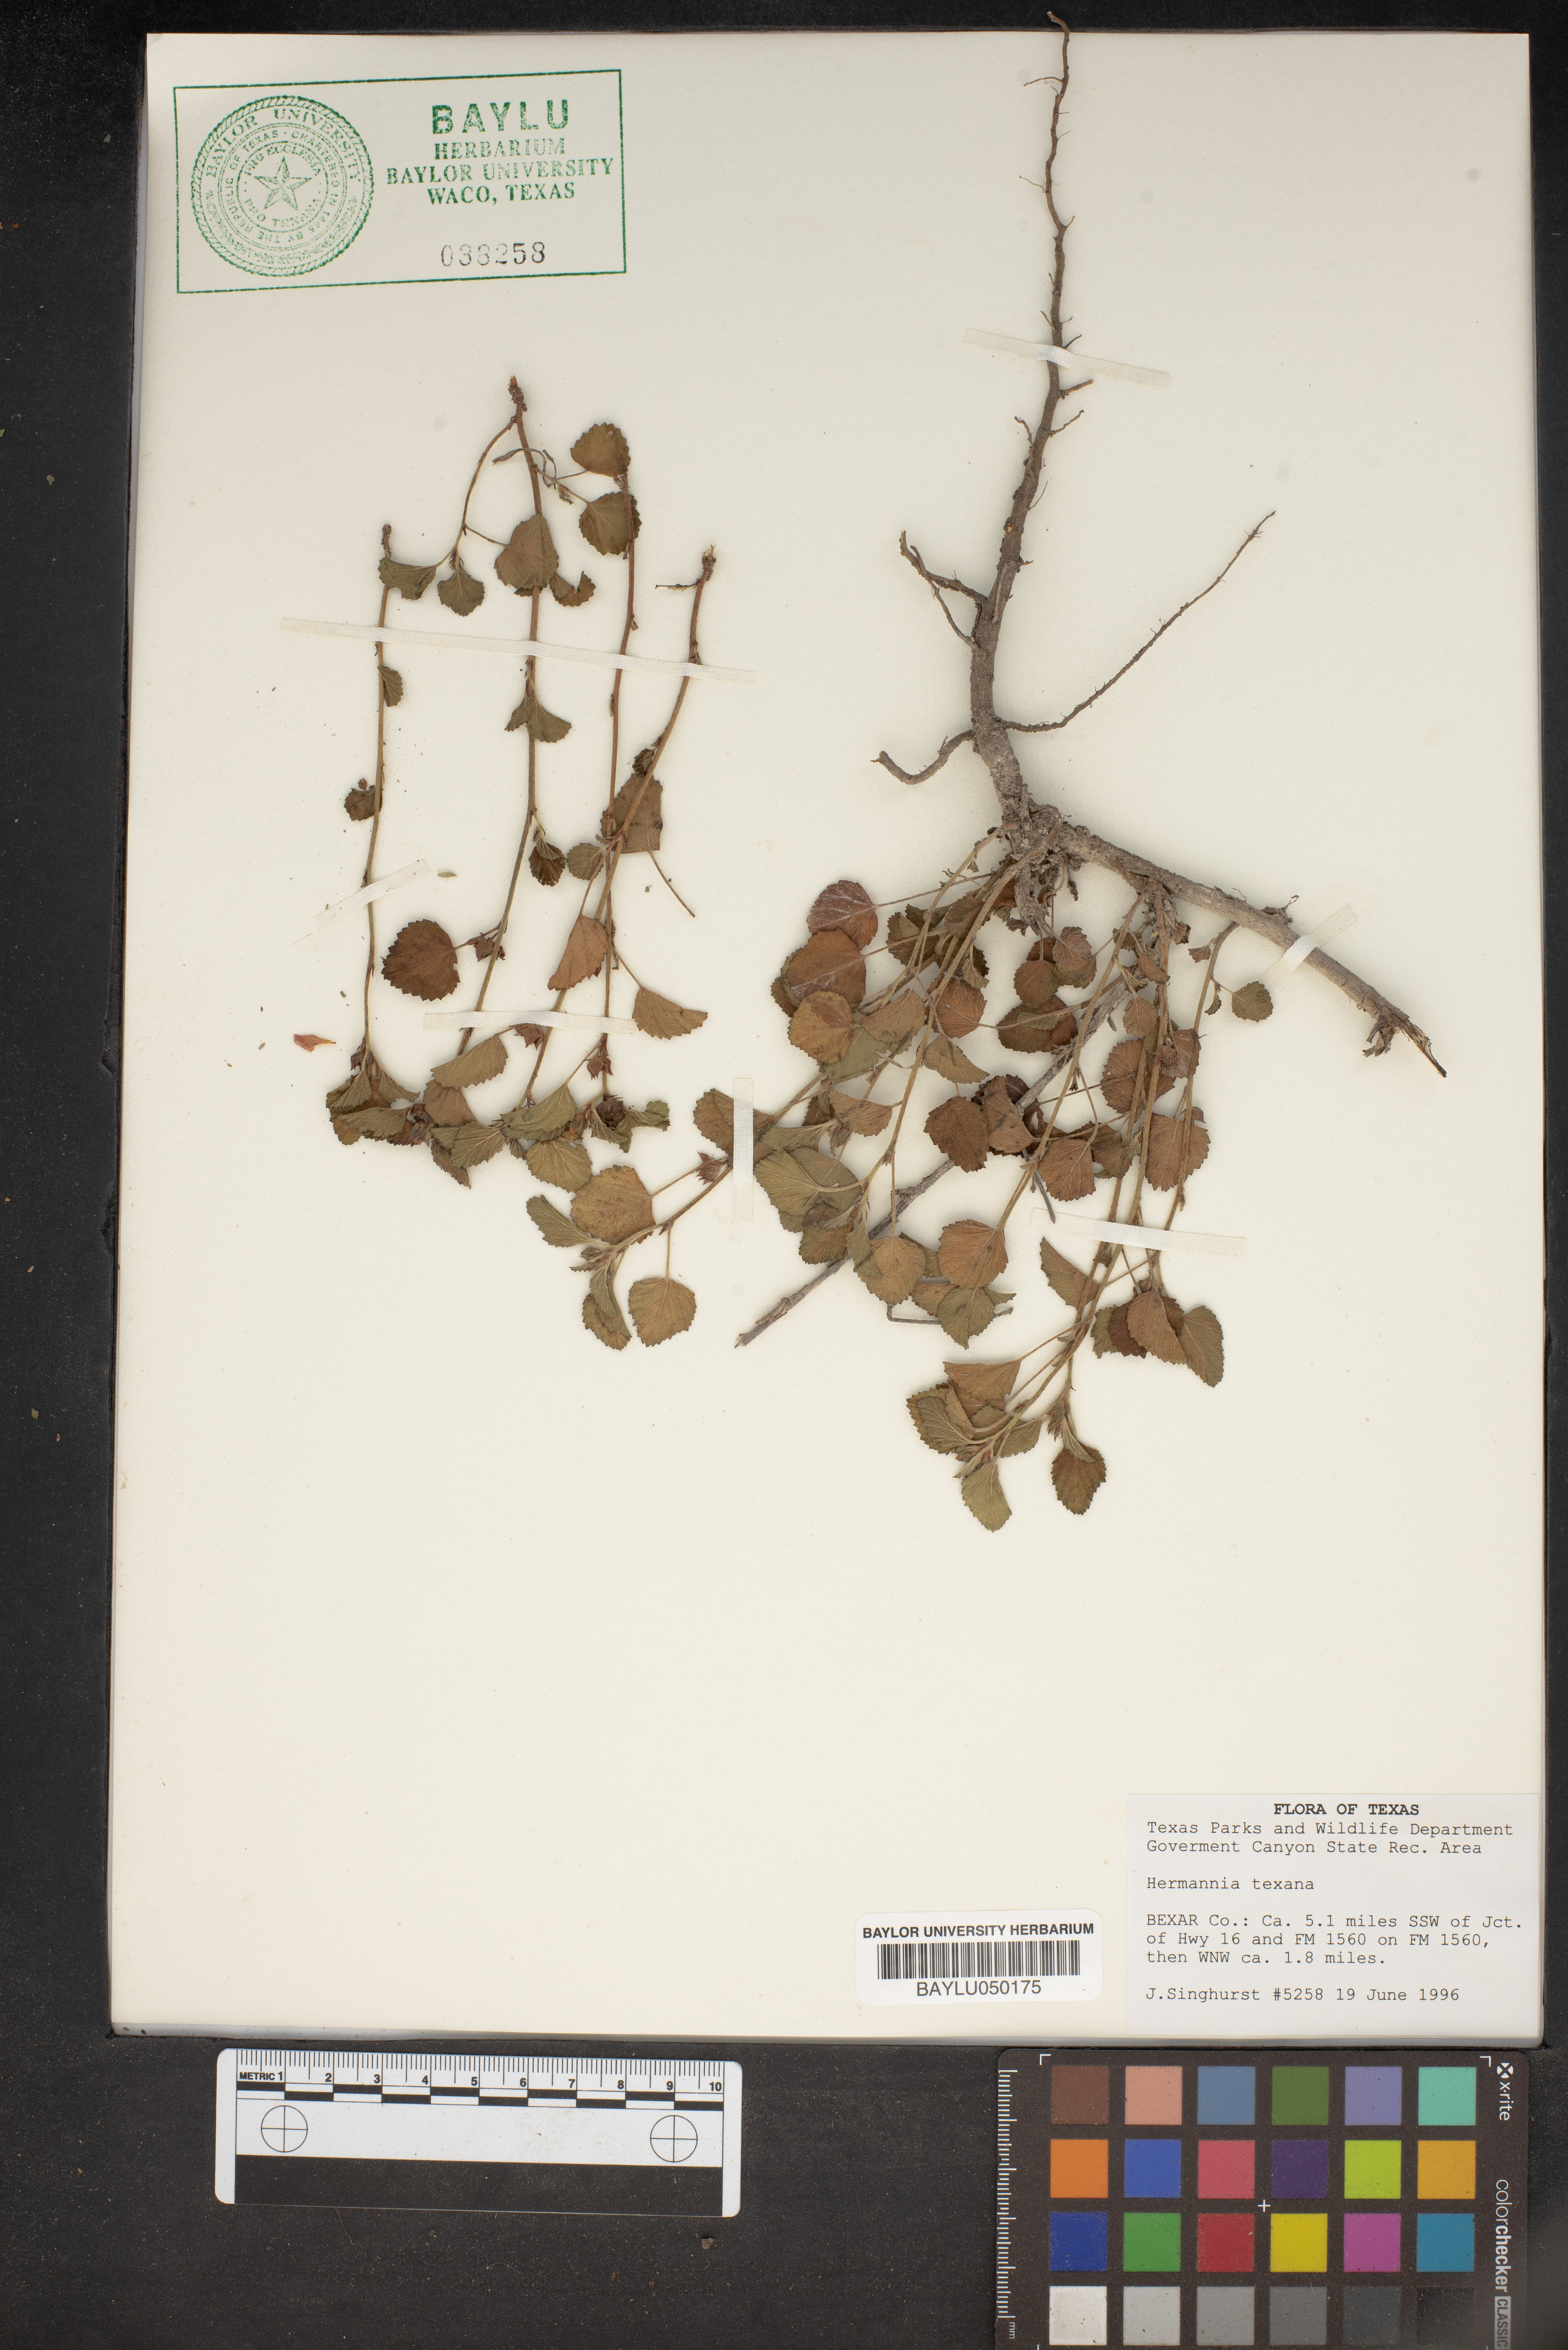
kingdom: Plantae
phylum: Tracheophyta
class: Magnoliopsida
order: Malvales
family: Malvaceae
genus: Hermannia
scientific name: Hermannia texana
